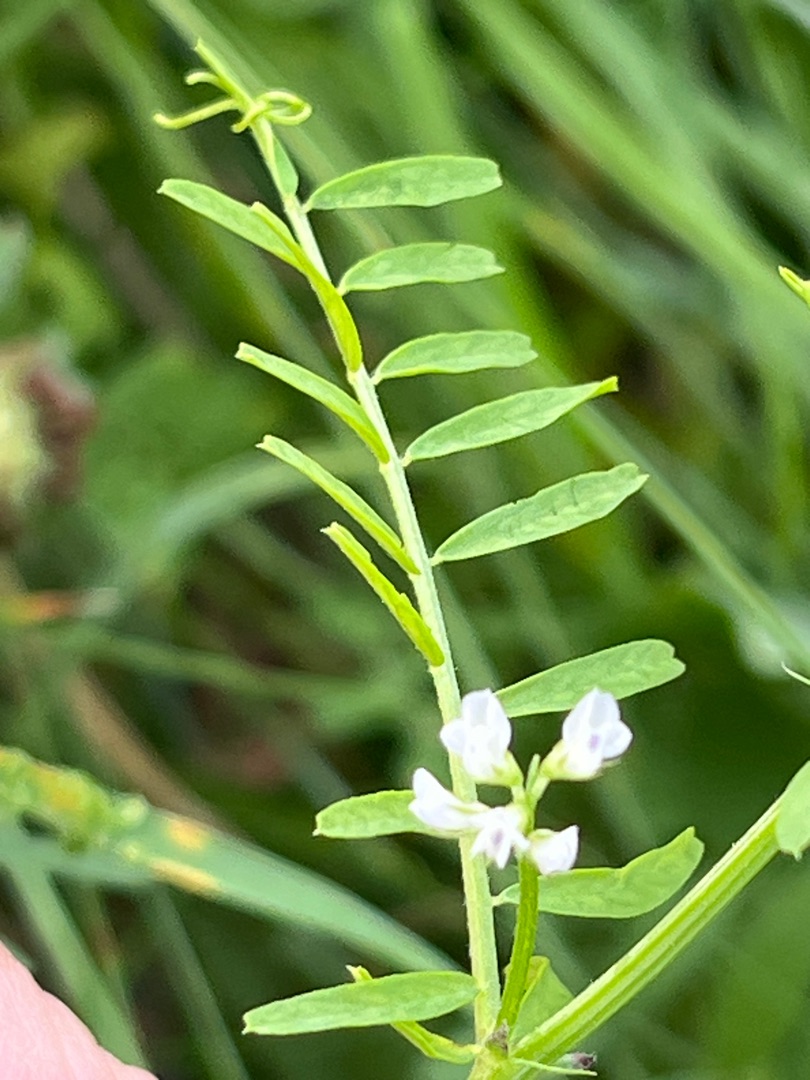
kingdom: Plantae
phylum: Tracheophyta
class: Magnoliopsida
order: Fabales
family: Fabaceae
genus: Vicia
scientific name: Vicia hirsuta
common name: Tofrøet vikke
